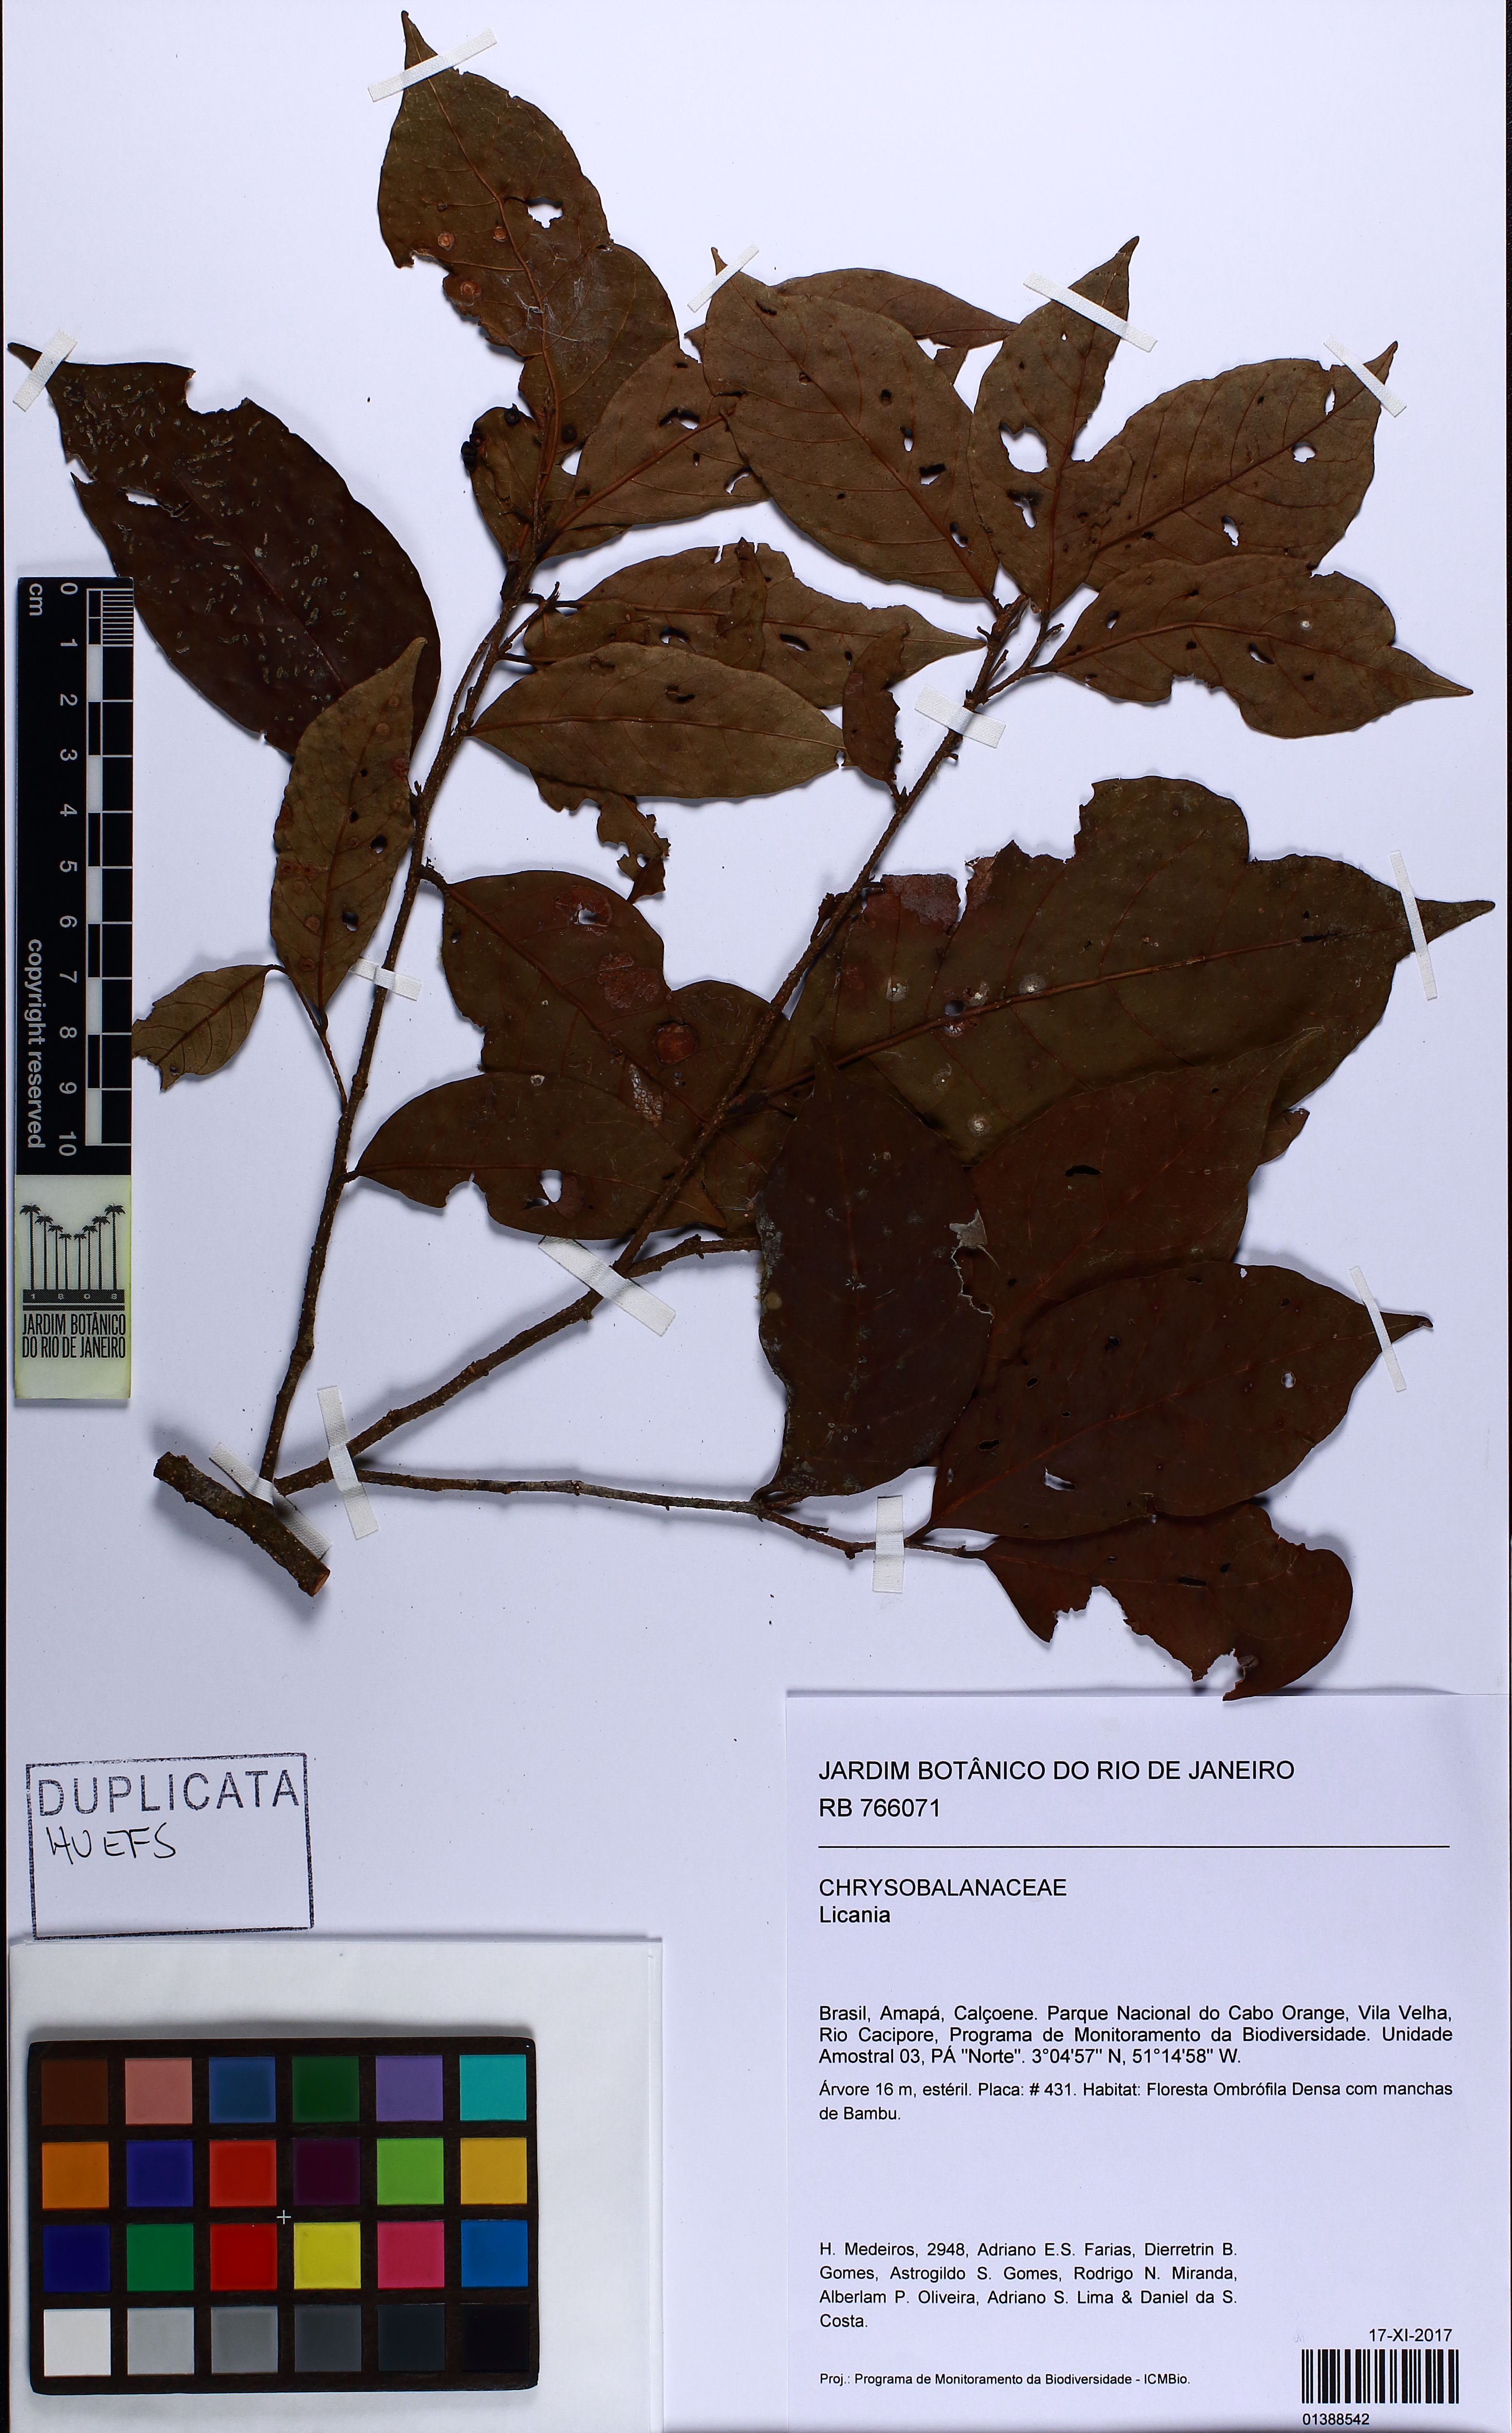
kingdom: Plantae
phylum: Tracheophyta
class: Magnoliopsida
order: Malpighiales
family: Chrysobalanaceae
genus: Licania
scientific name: Licania
